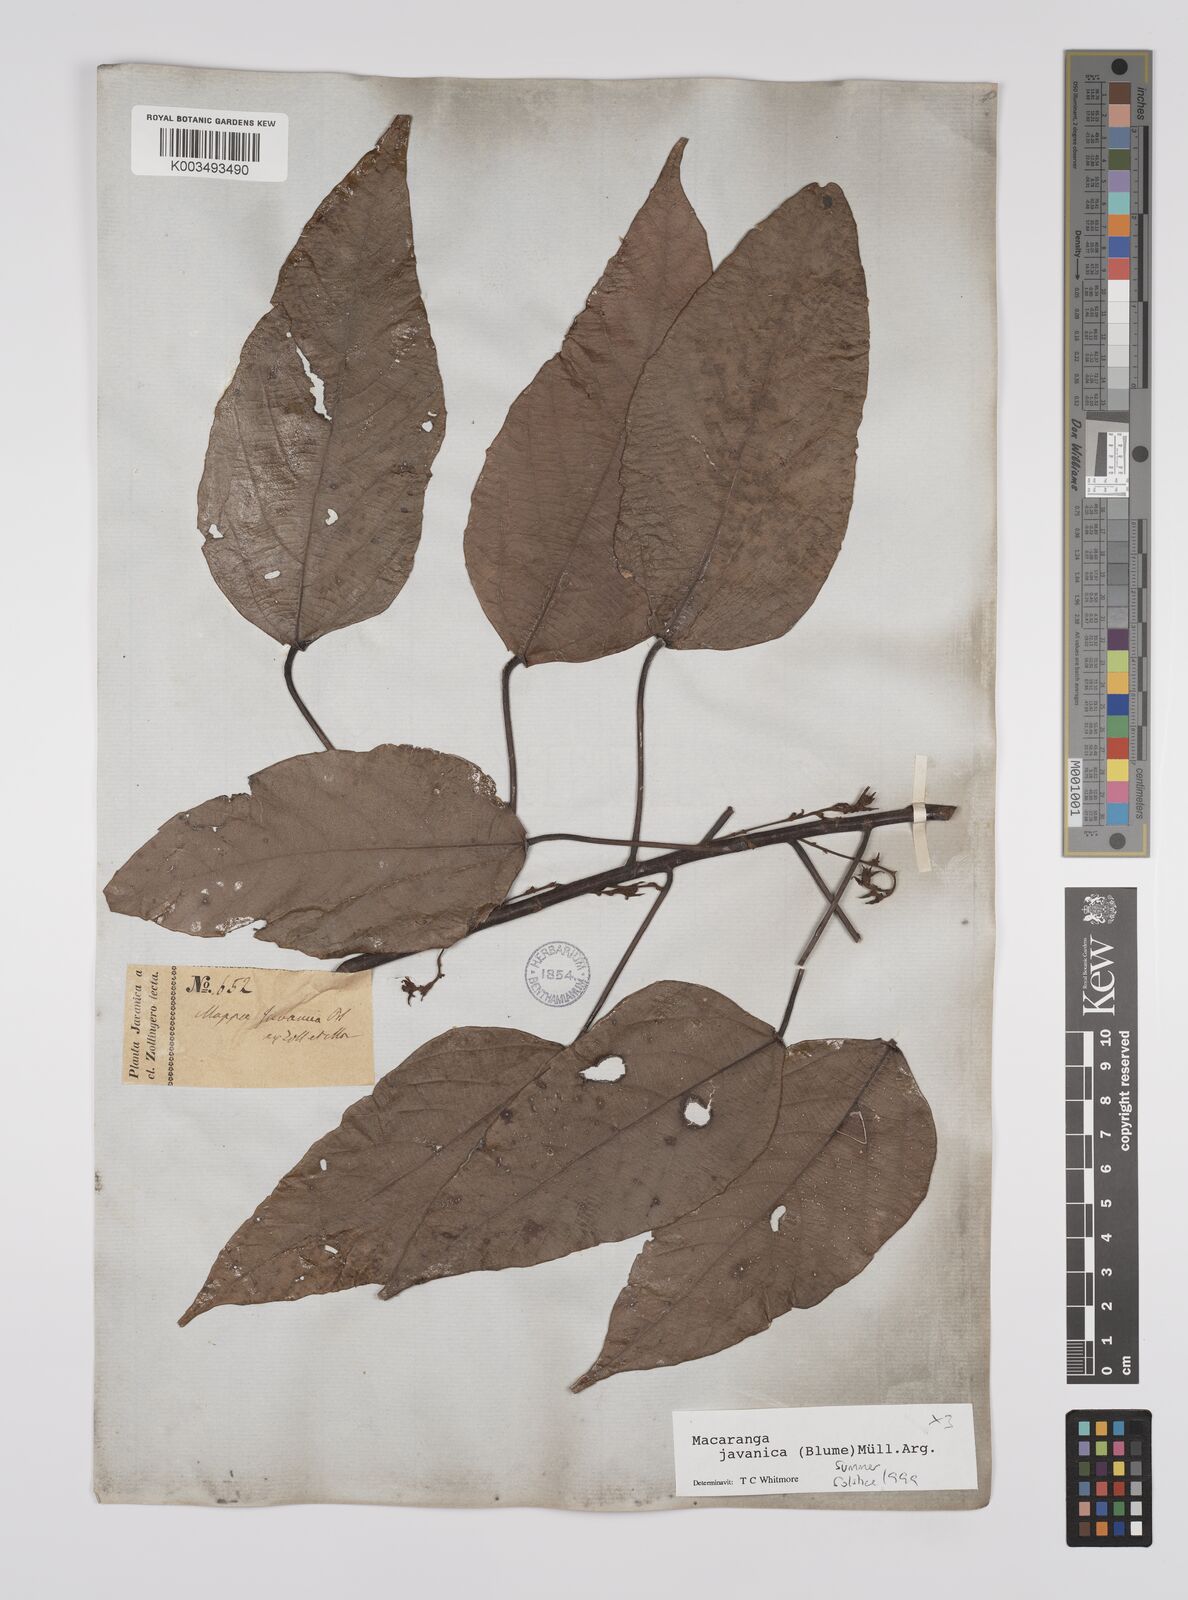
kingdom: Plantae
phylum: Tracheophyta
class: Magnoliopsida
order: Malpighiales
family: Euphorbiaceae
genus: Macaranga
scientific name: Macaranga javanica
